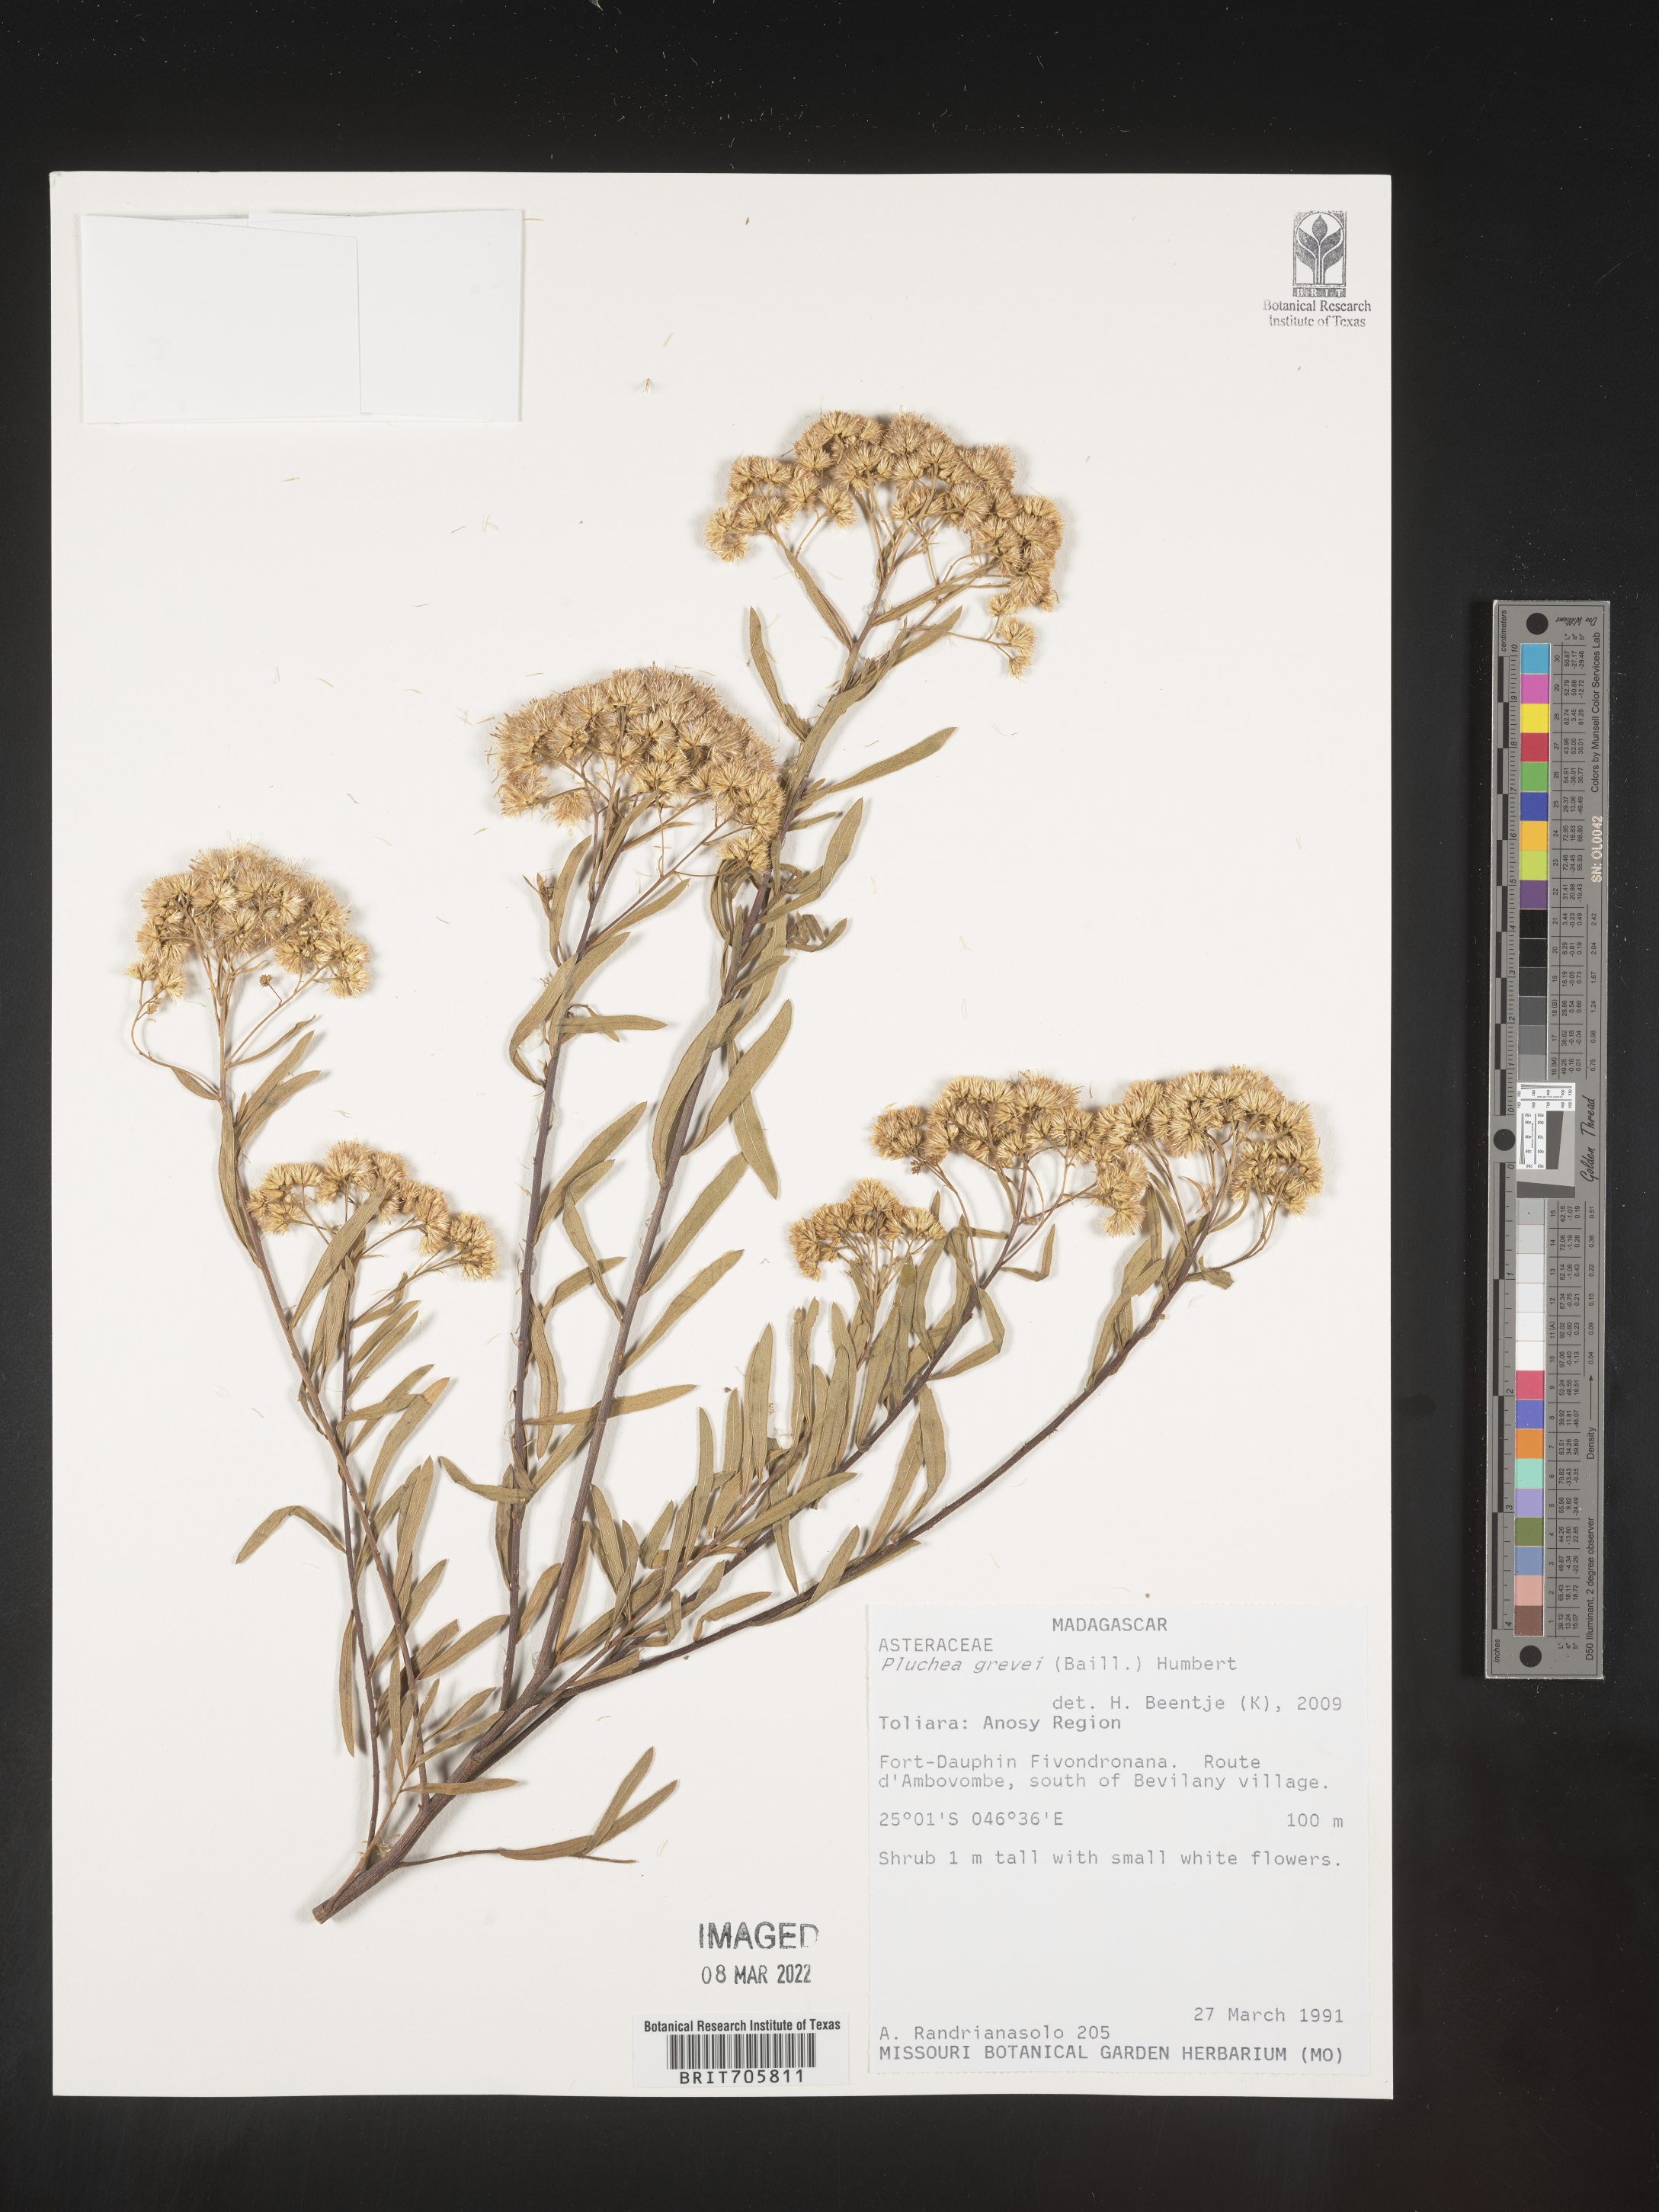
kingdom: Plantae
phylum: Tracheophyta
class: Magnoliopsida
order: Asterales
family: Asteraceae
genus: Pluchea
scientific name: Pluchea
